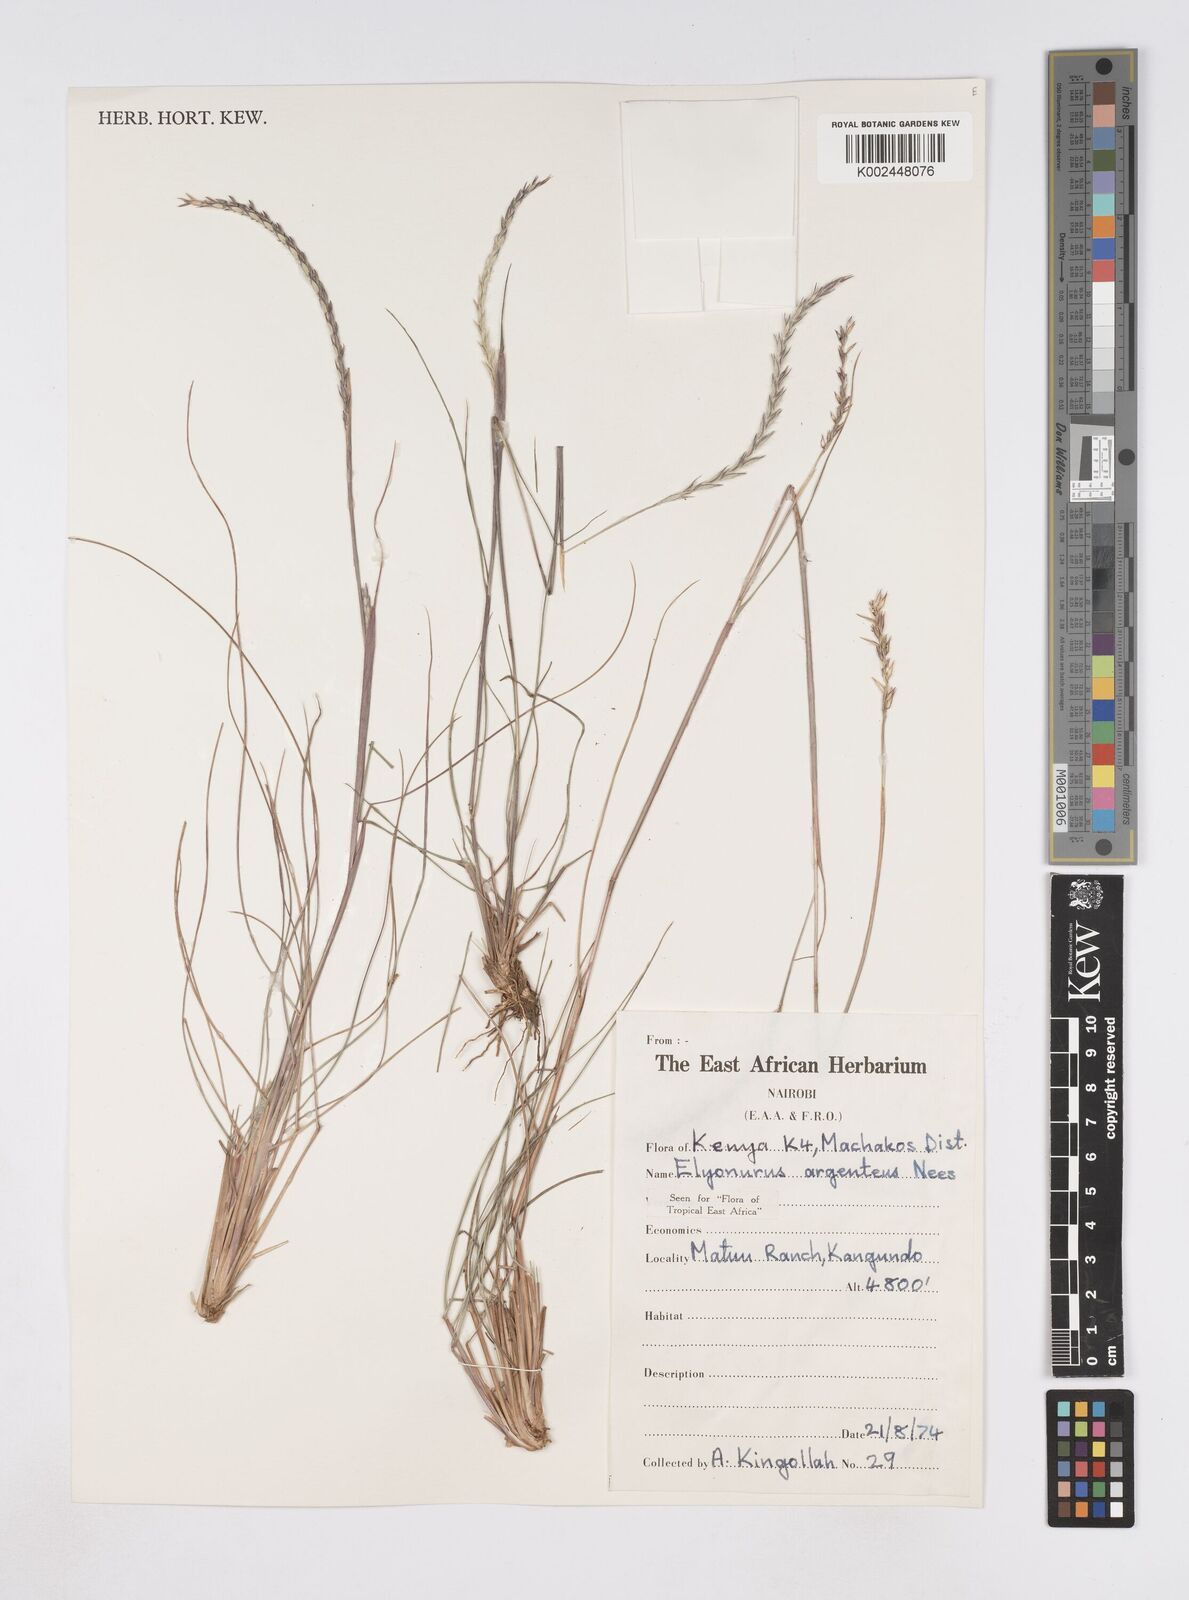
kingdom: Plantae
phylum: Tracheophyta
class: Liliopsida
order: Poales
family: Poaceae
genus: Elionurus
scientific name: Elionurus muticus
